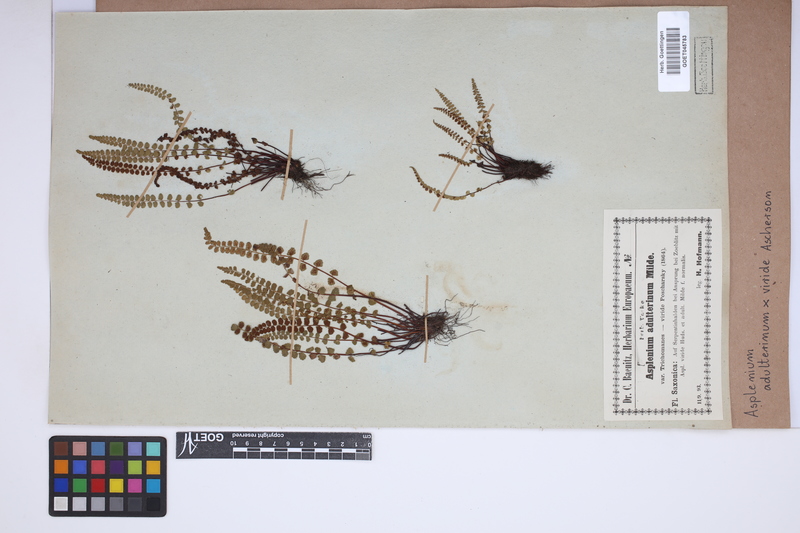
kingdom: Plantae
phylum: Tracheophyta
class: Polypodiopsida
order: Polypodiales
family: Aspleniaceae
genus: Asplenium
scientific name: Asplenium
